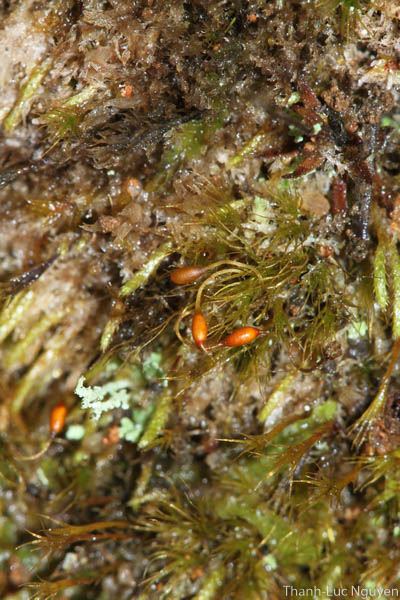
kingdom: Plantae
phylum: Bryophyta
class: Bryopsida
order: Dicranales
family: Dicranellaceae
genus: Microcampylopus
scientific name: Microcampylopus
